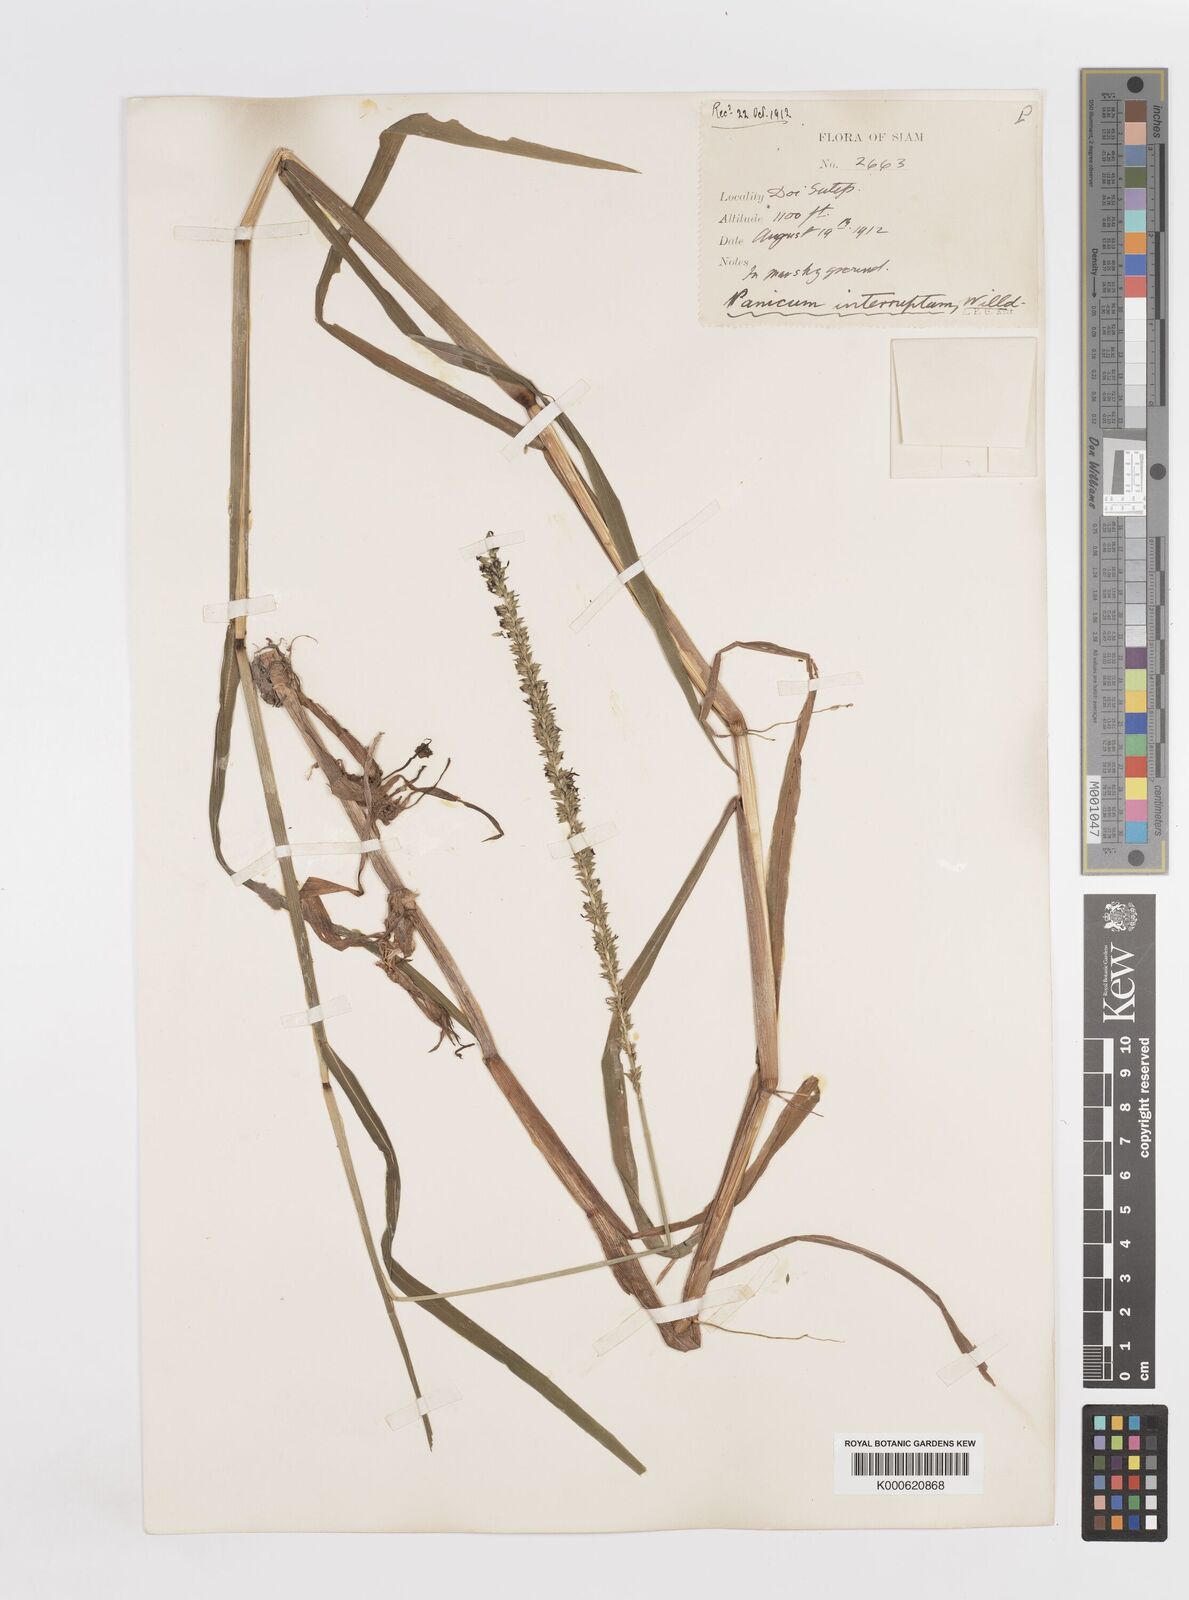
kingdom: Plantae
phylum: Tracheophyta
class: Liliopsida
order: Poales
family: Poaceae
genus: Sacciolepis
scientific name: Sacciolepis interrupta
